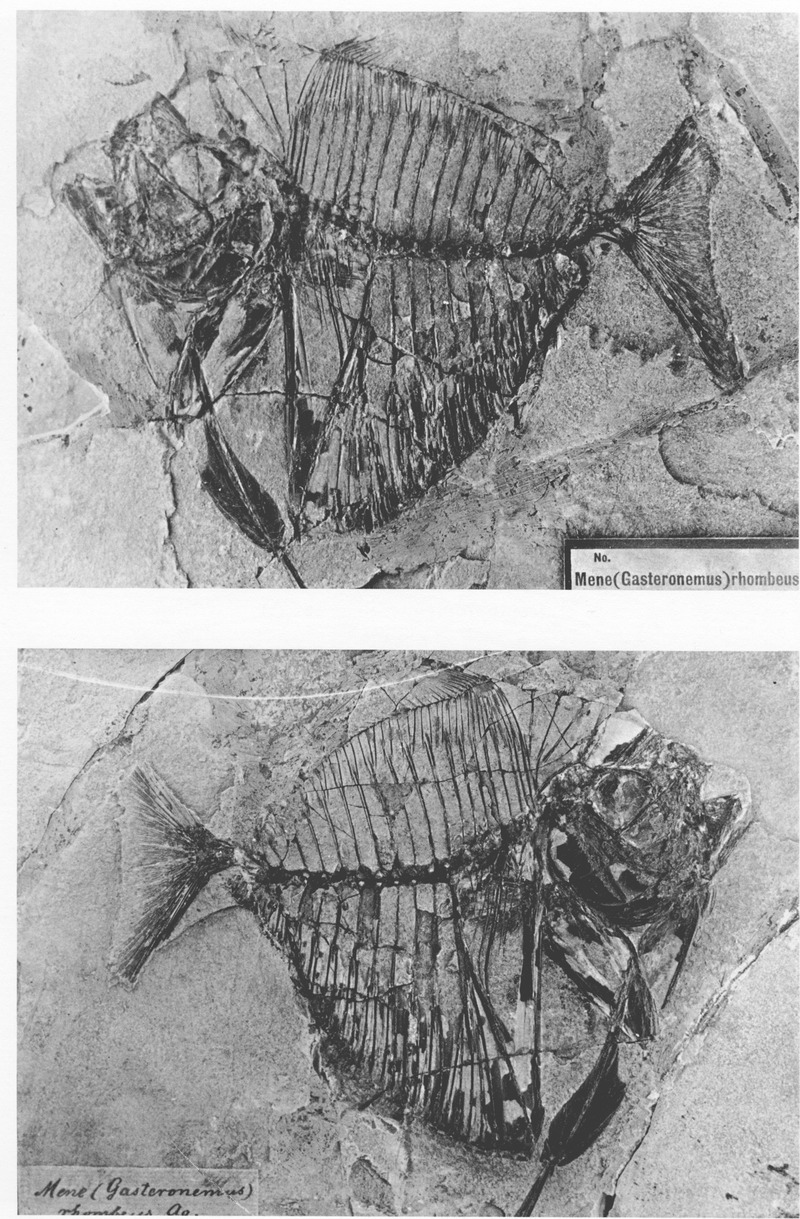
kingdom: Animalia
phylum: Chordata
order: Perciformes
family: Menidae
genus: Mene
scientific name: Mene rhombea
